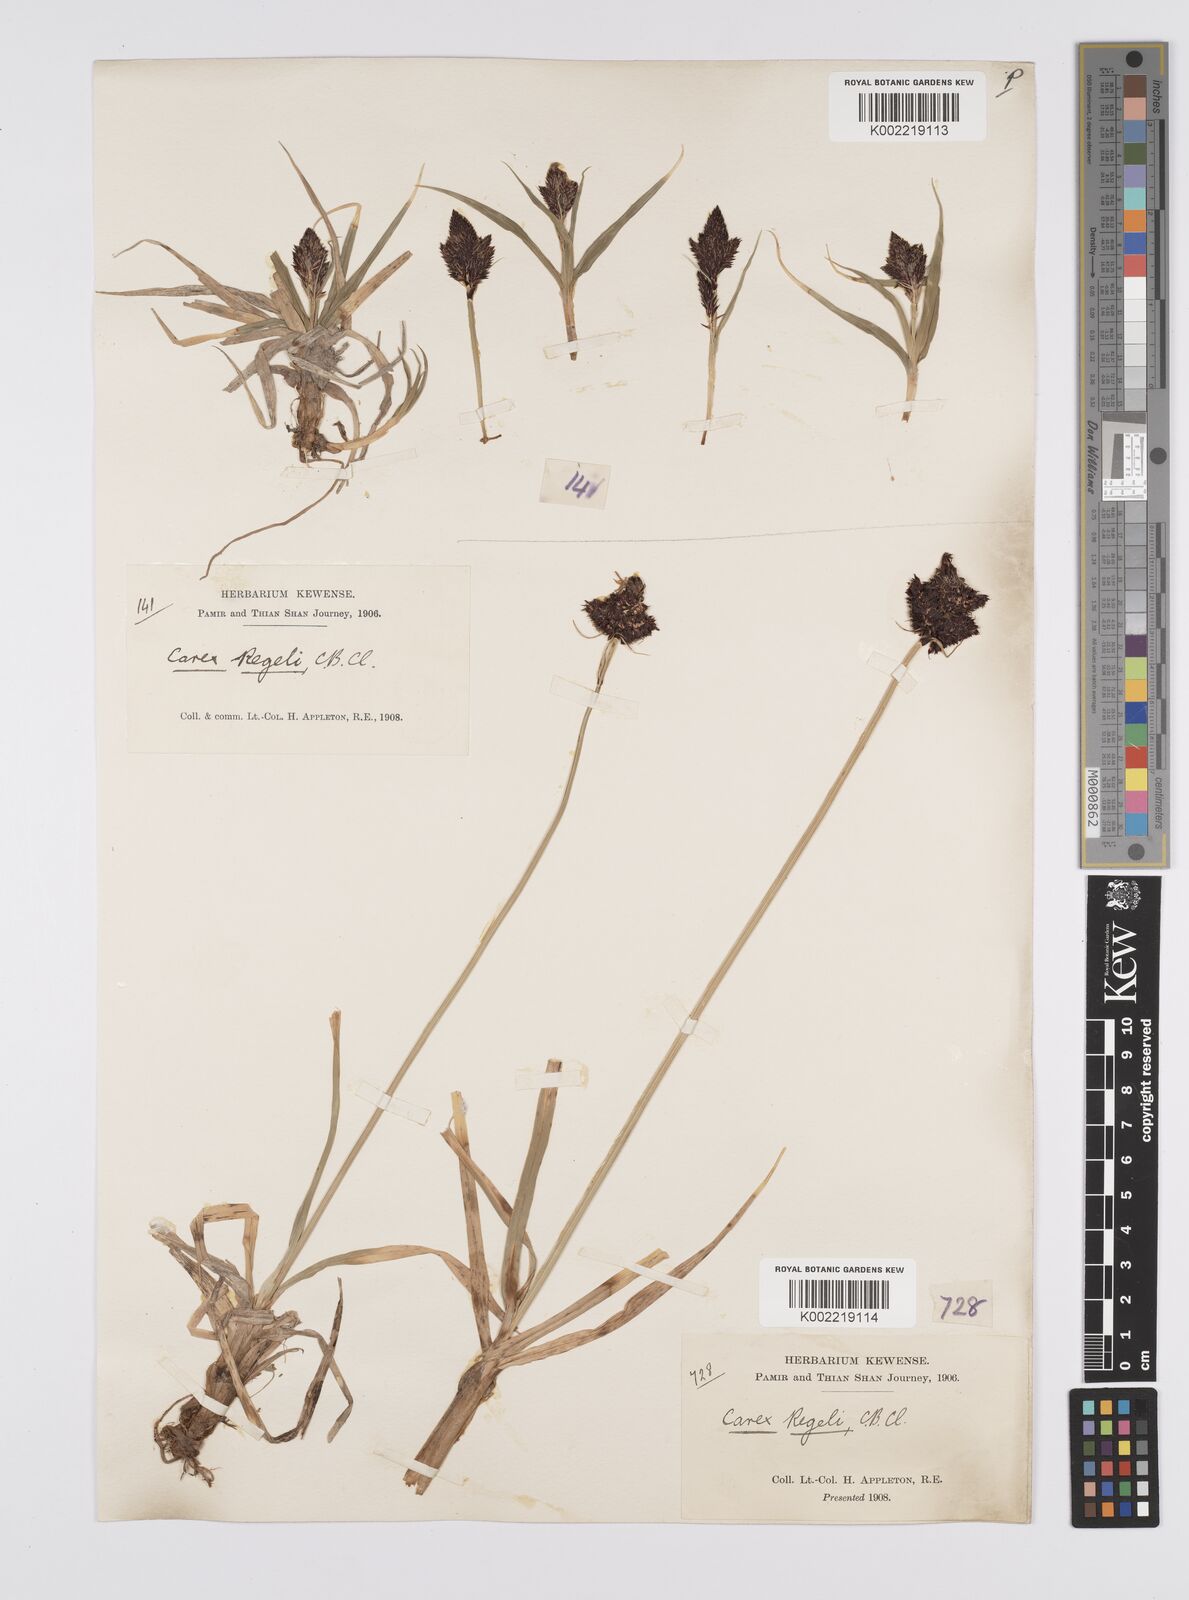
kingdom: Plantae
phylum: Tracheophyta
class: Liliopsida
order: Poales
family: Cyperaceae
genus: Carex
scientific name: Carex melanantha
